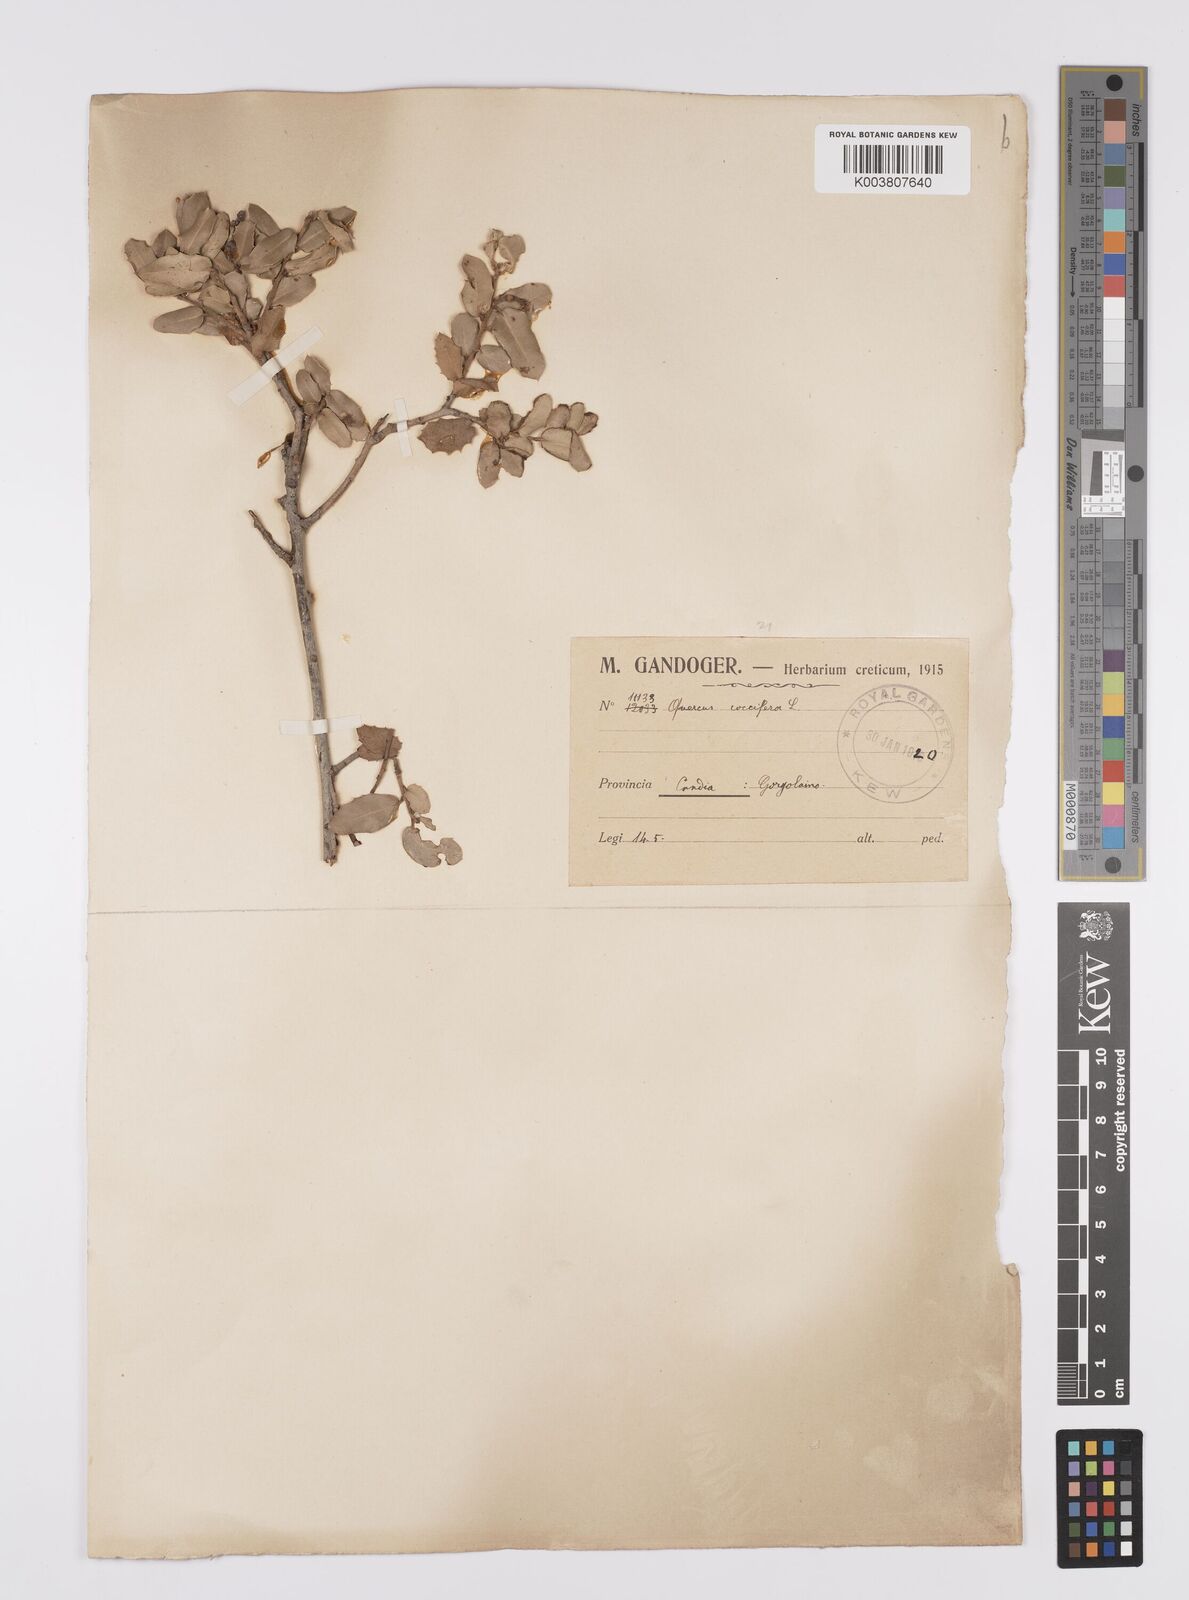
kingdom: Plantae
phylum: Tracheophyta
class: Magnoliopsida
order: Fagales
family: Fagaceae
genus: Quercus
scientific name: Quercus coccifera
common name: Kermes oak
